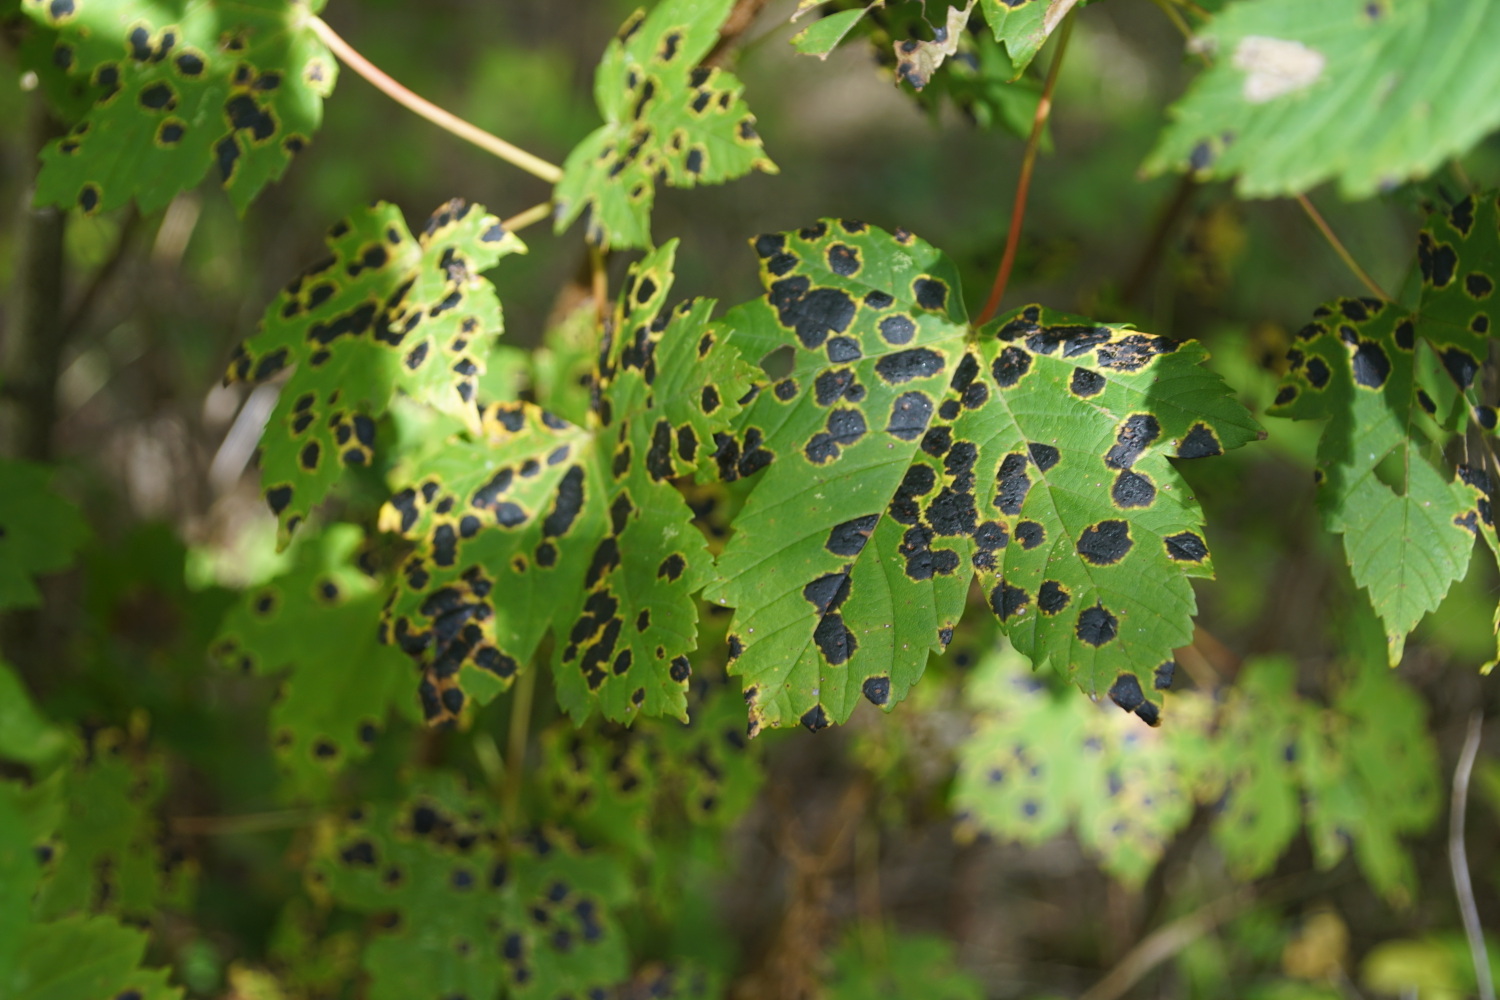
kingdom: Fungi
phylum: Ascomycota
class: Leotiomycetes
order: Rhytismatales
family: Rhytismataceae
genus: Rhytisma
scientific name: Rhytisma acerinum
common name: ahorn-rynkeplet
